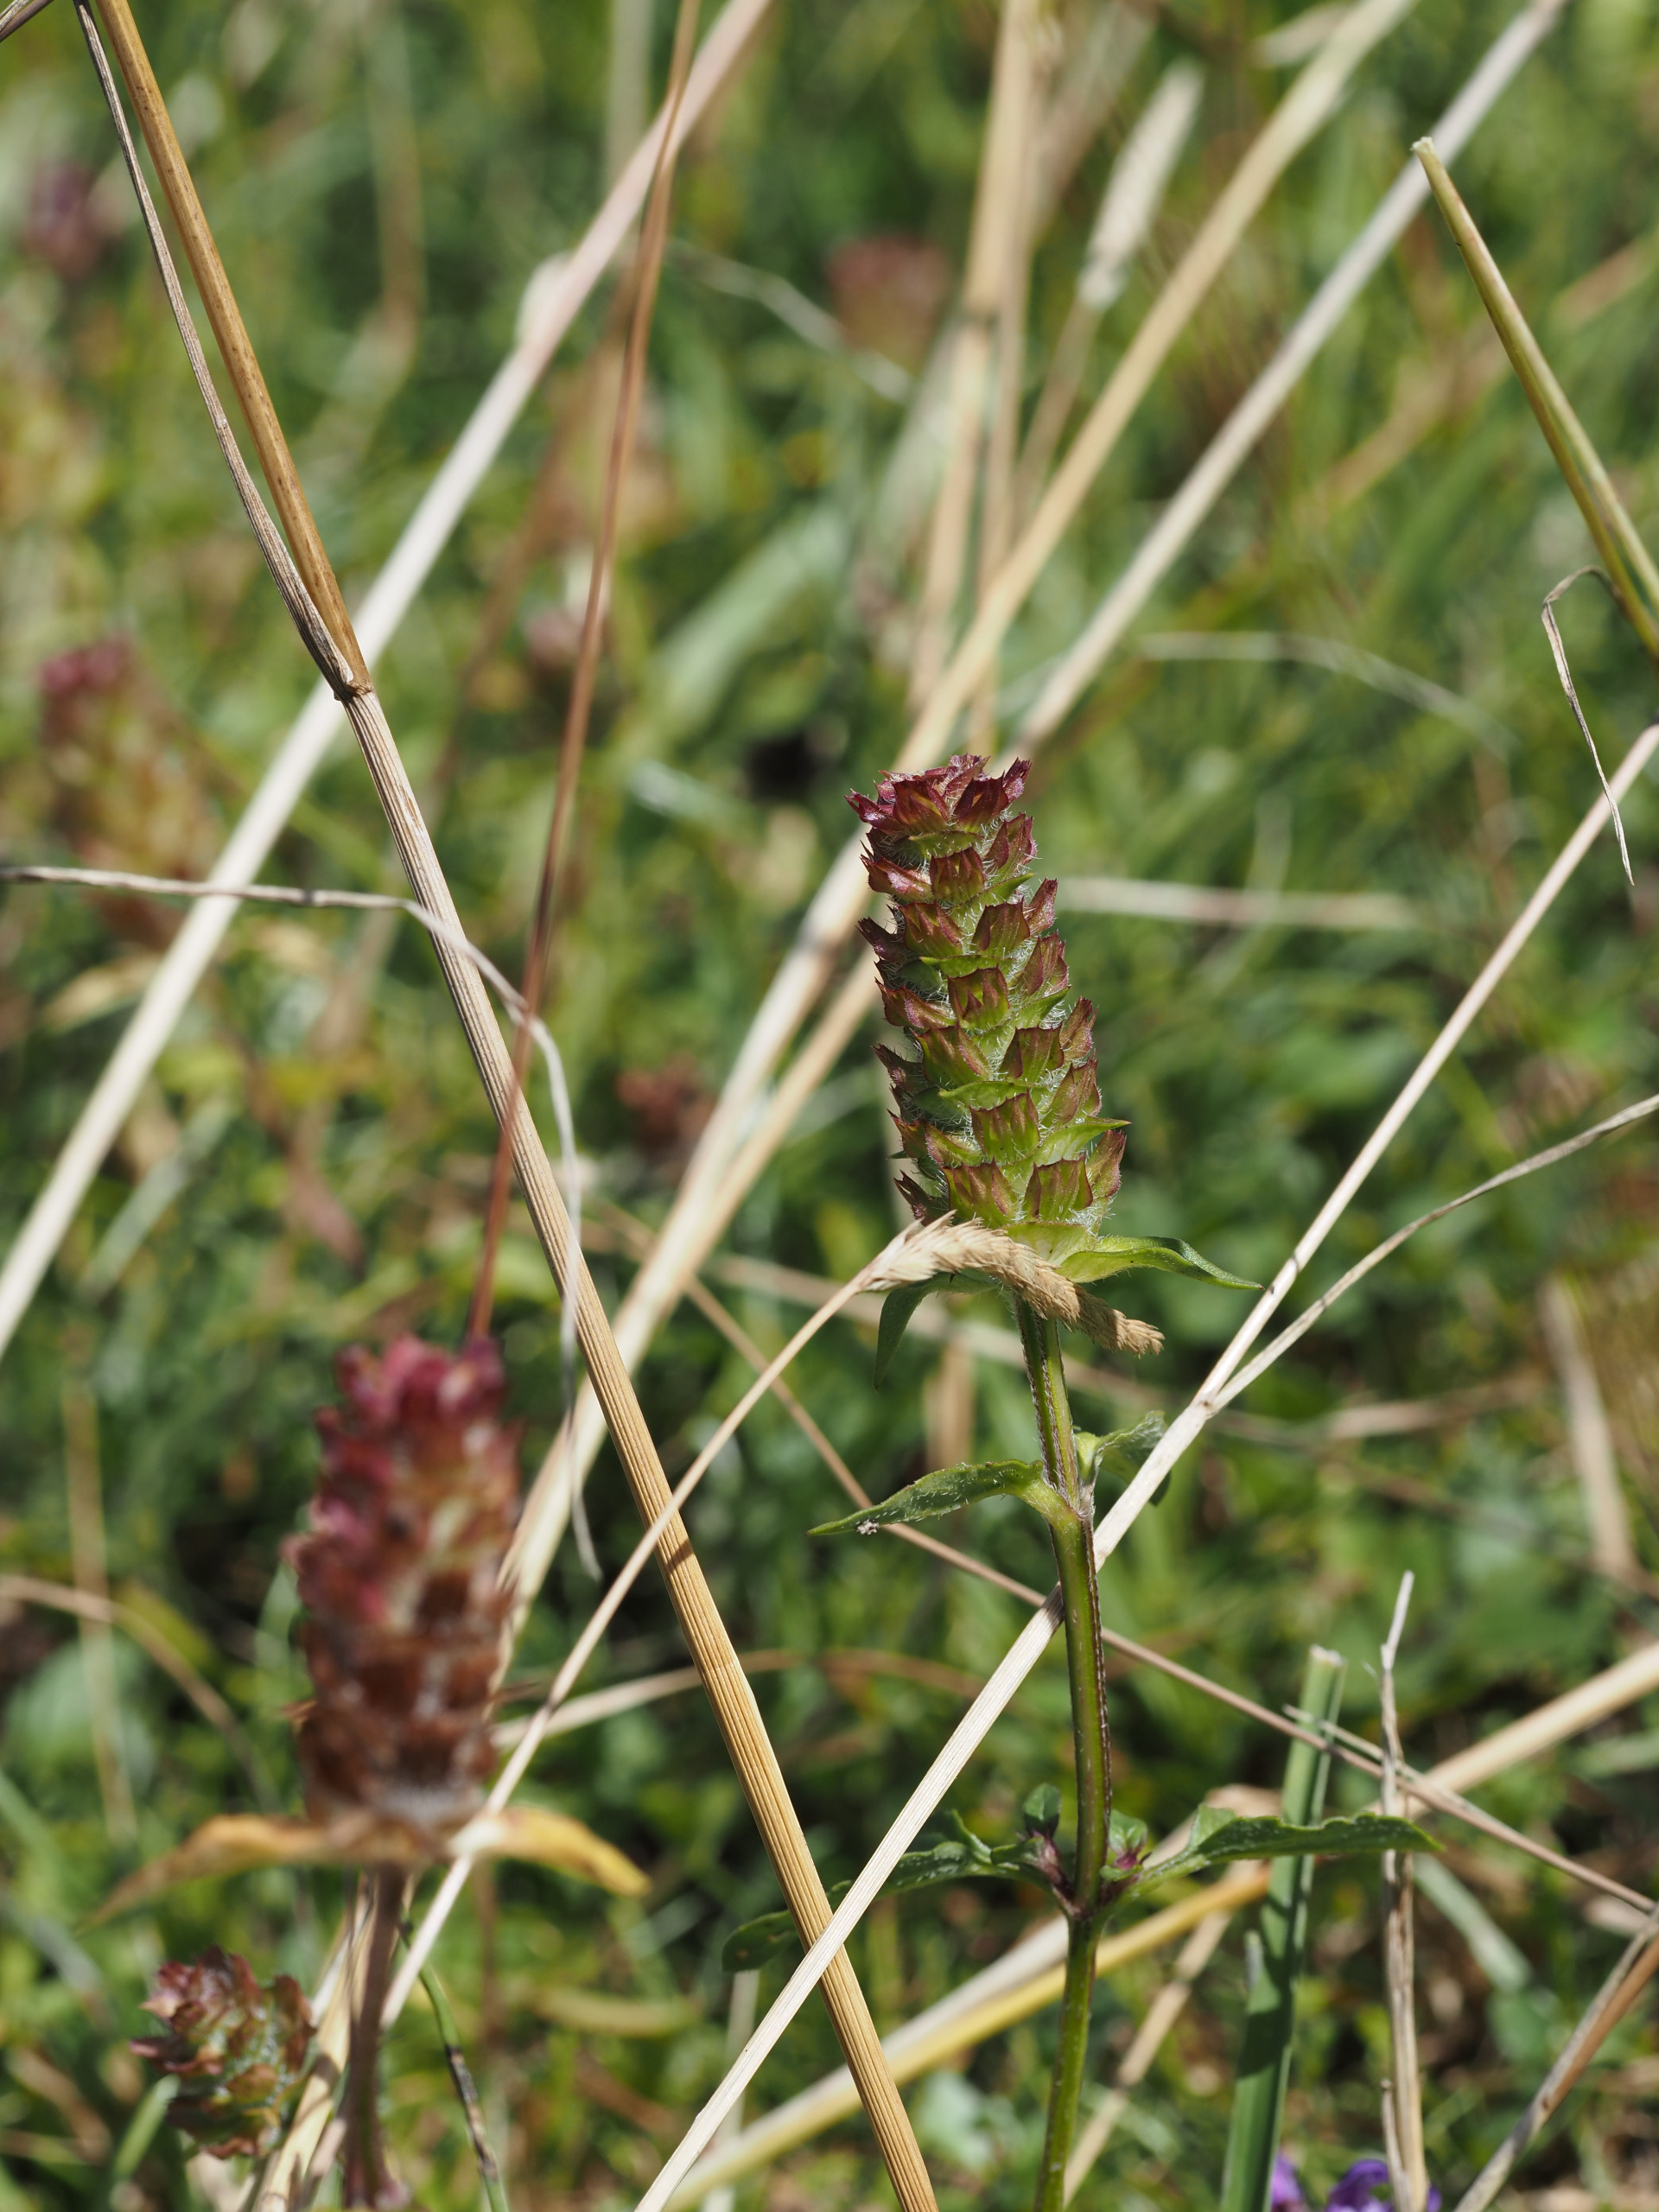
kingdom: Plantae
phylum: Tracheophyta
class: Magnoliopsida
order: Lamiales
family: Lamiaceae
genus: Prunella
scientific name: Prunella vulgaris
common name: Almindelig brunelle
